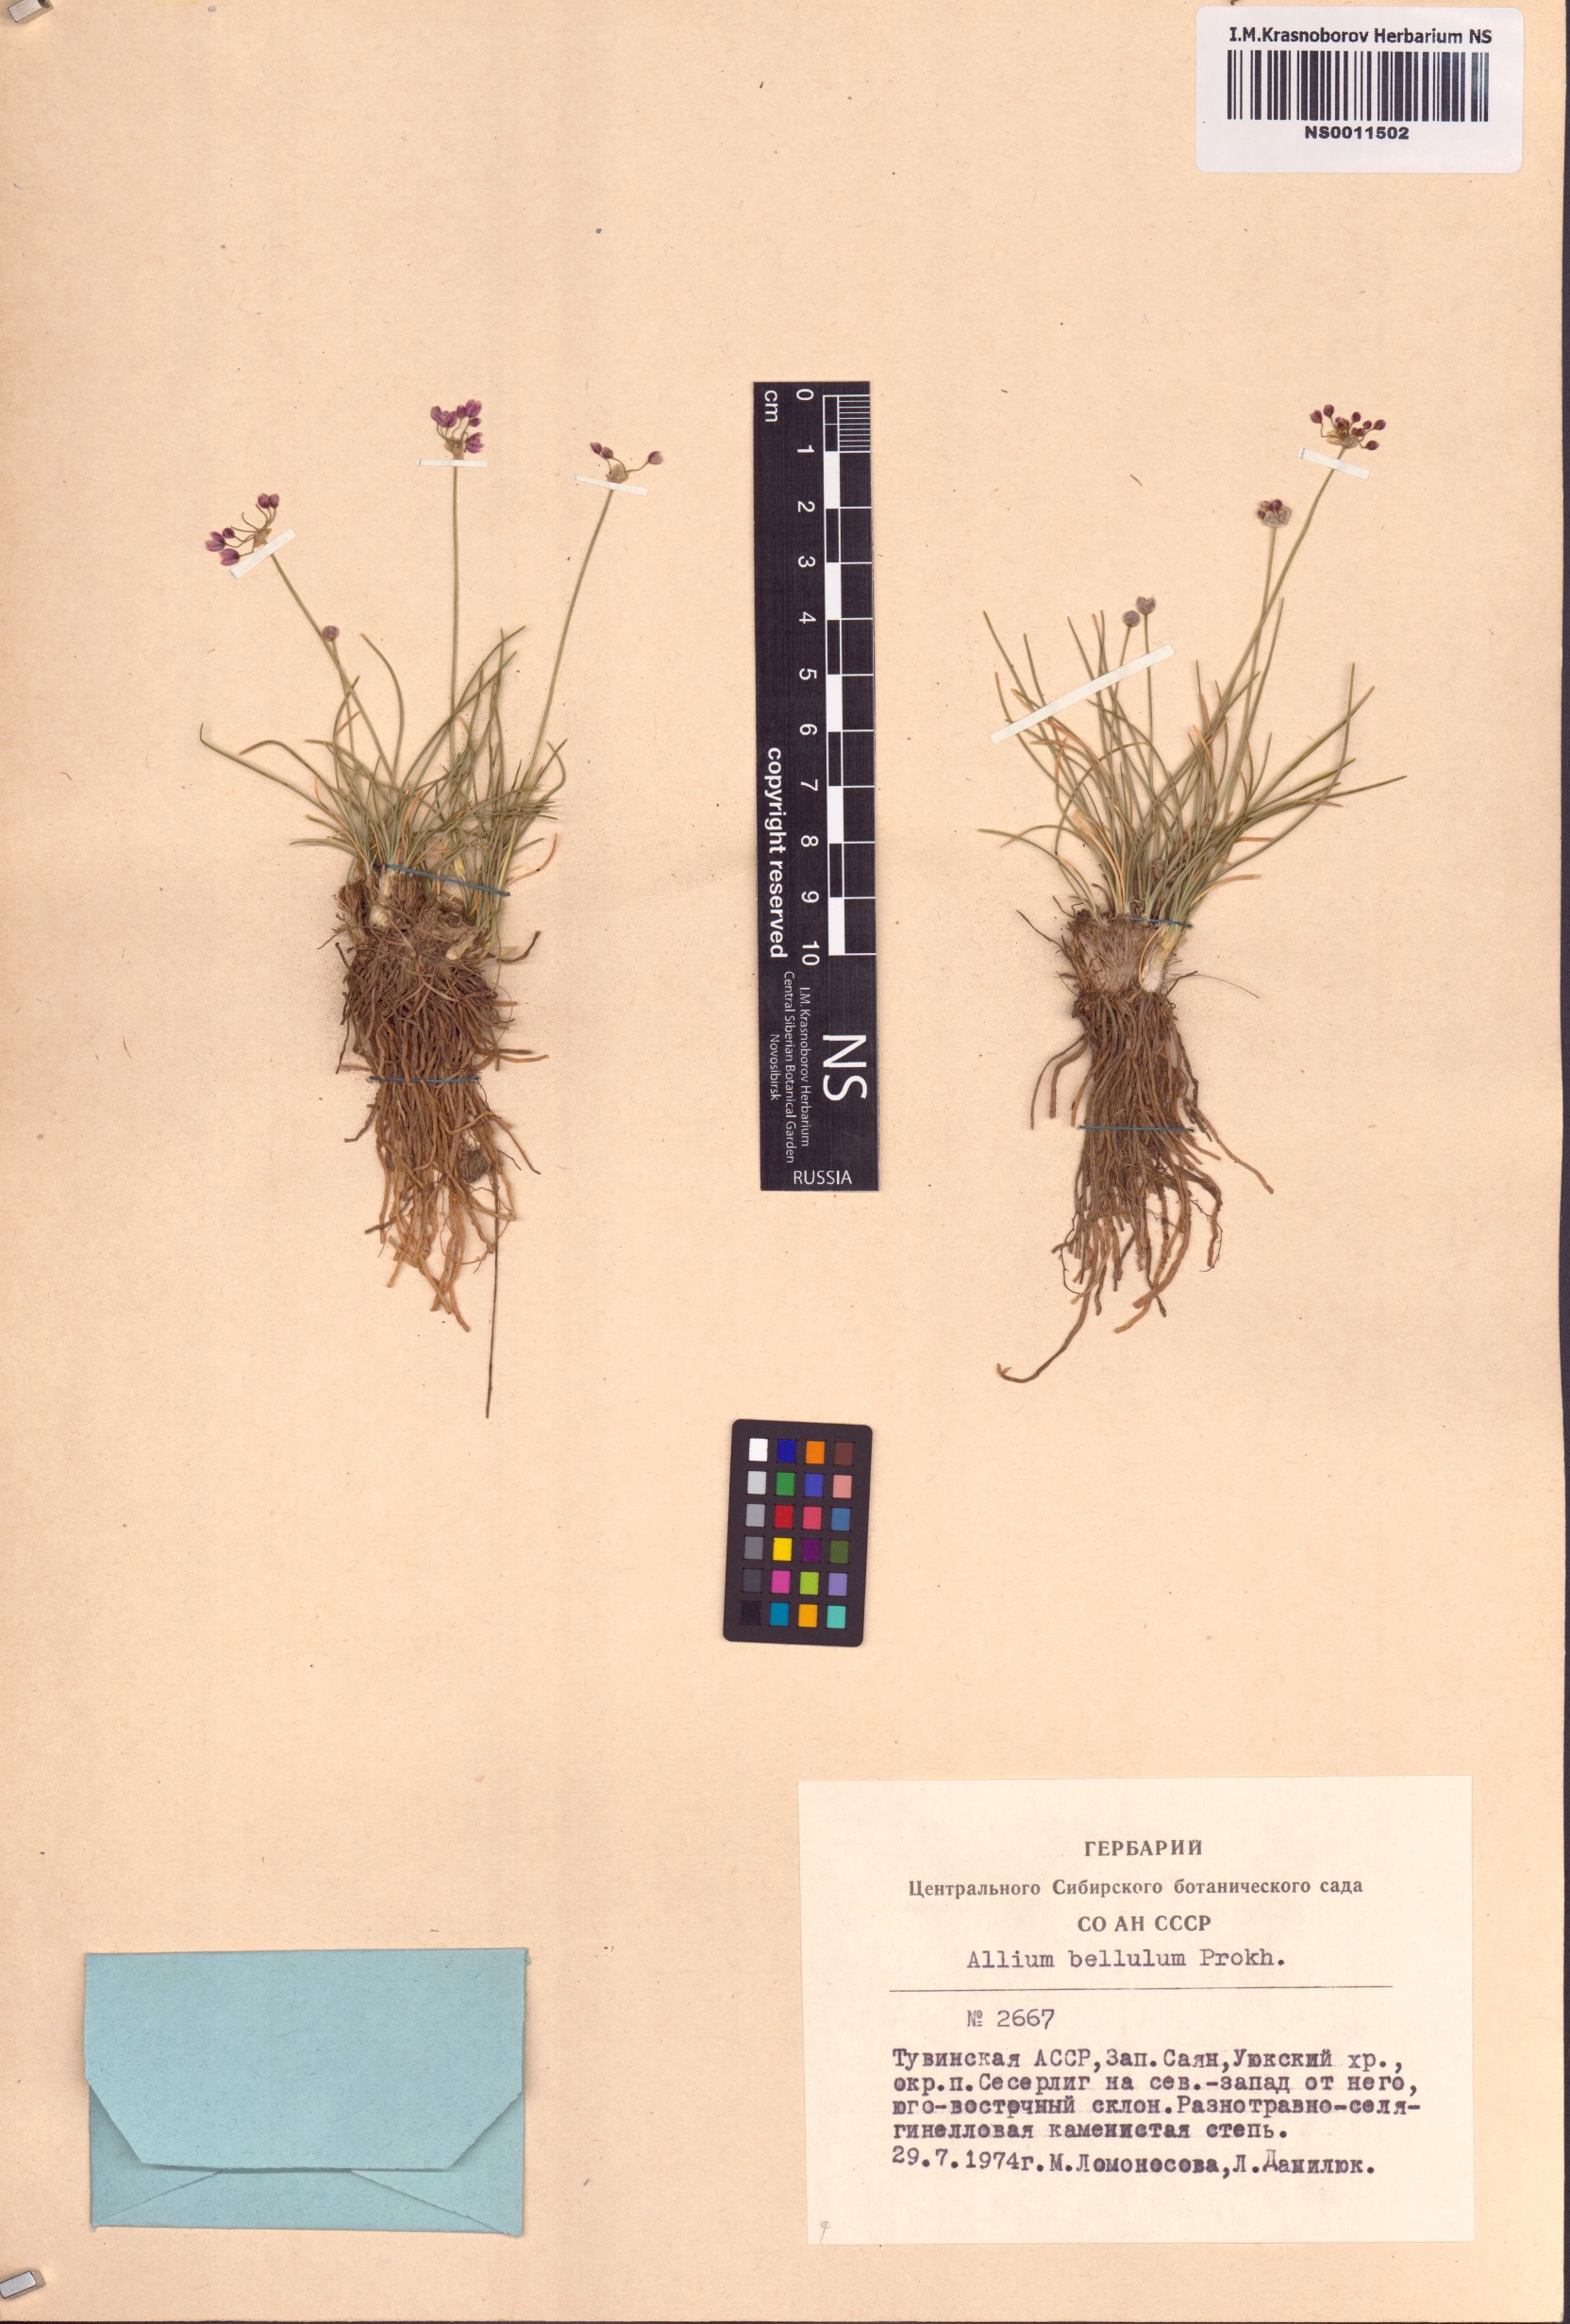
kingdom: Plantae
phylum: Tracheophyta
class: Liliopsida
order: Asparagales
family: Amaryllidaceae
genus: Allium
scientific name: Allium bellulum
